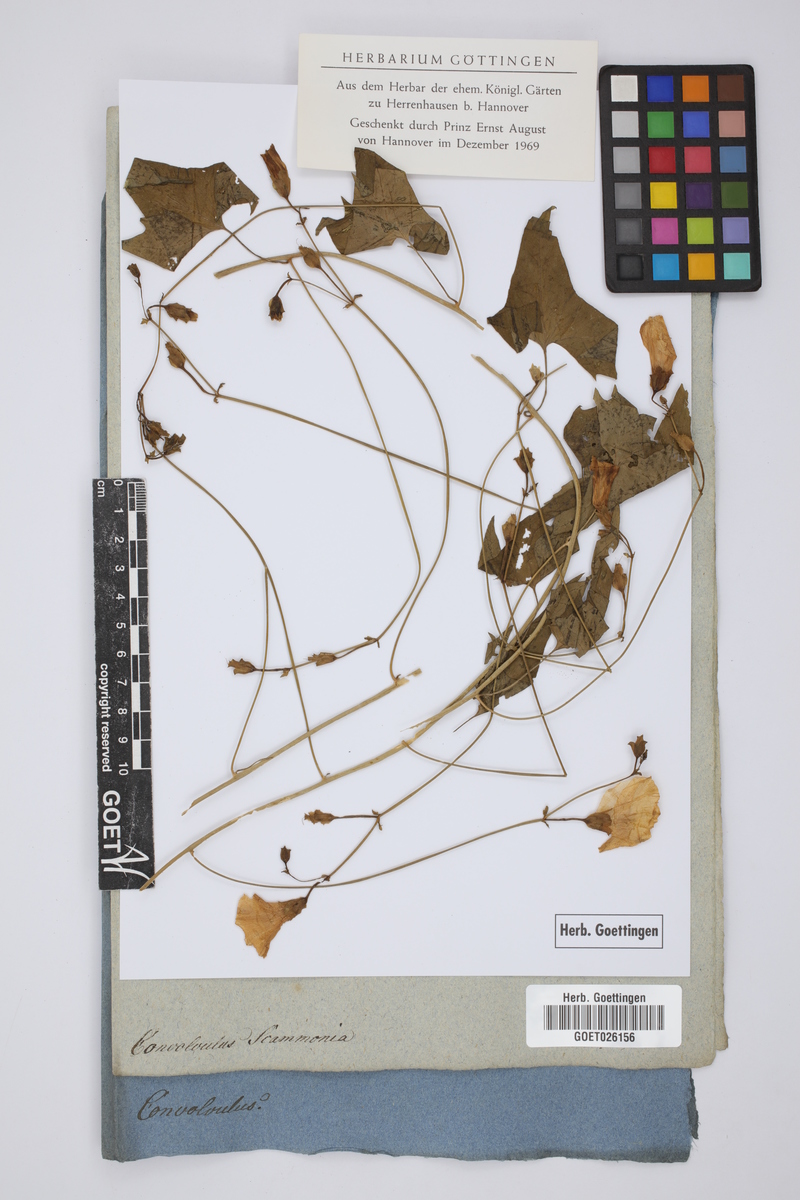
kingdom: Plantae
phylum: Tracheophyta
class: Magnoliopsida
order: Solanales
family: Convolvulaceae
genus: Convolvulus
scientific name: Convolvulus scammonia
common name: Scammony
